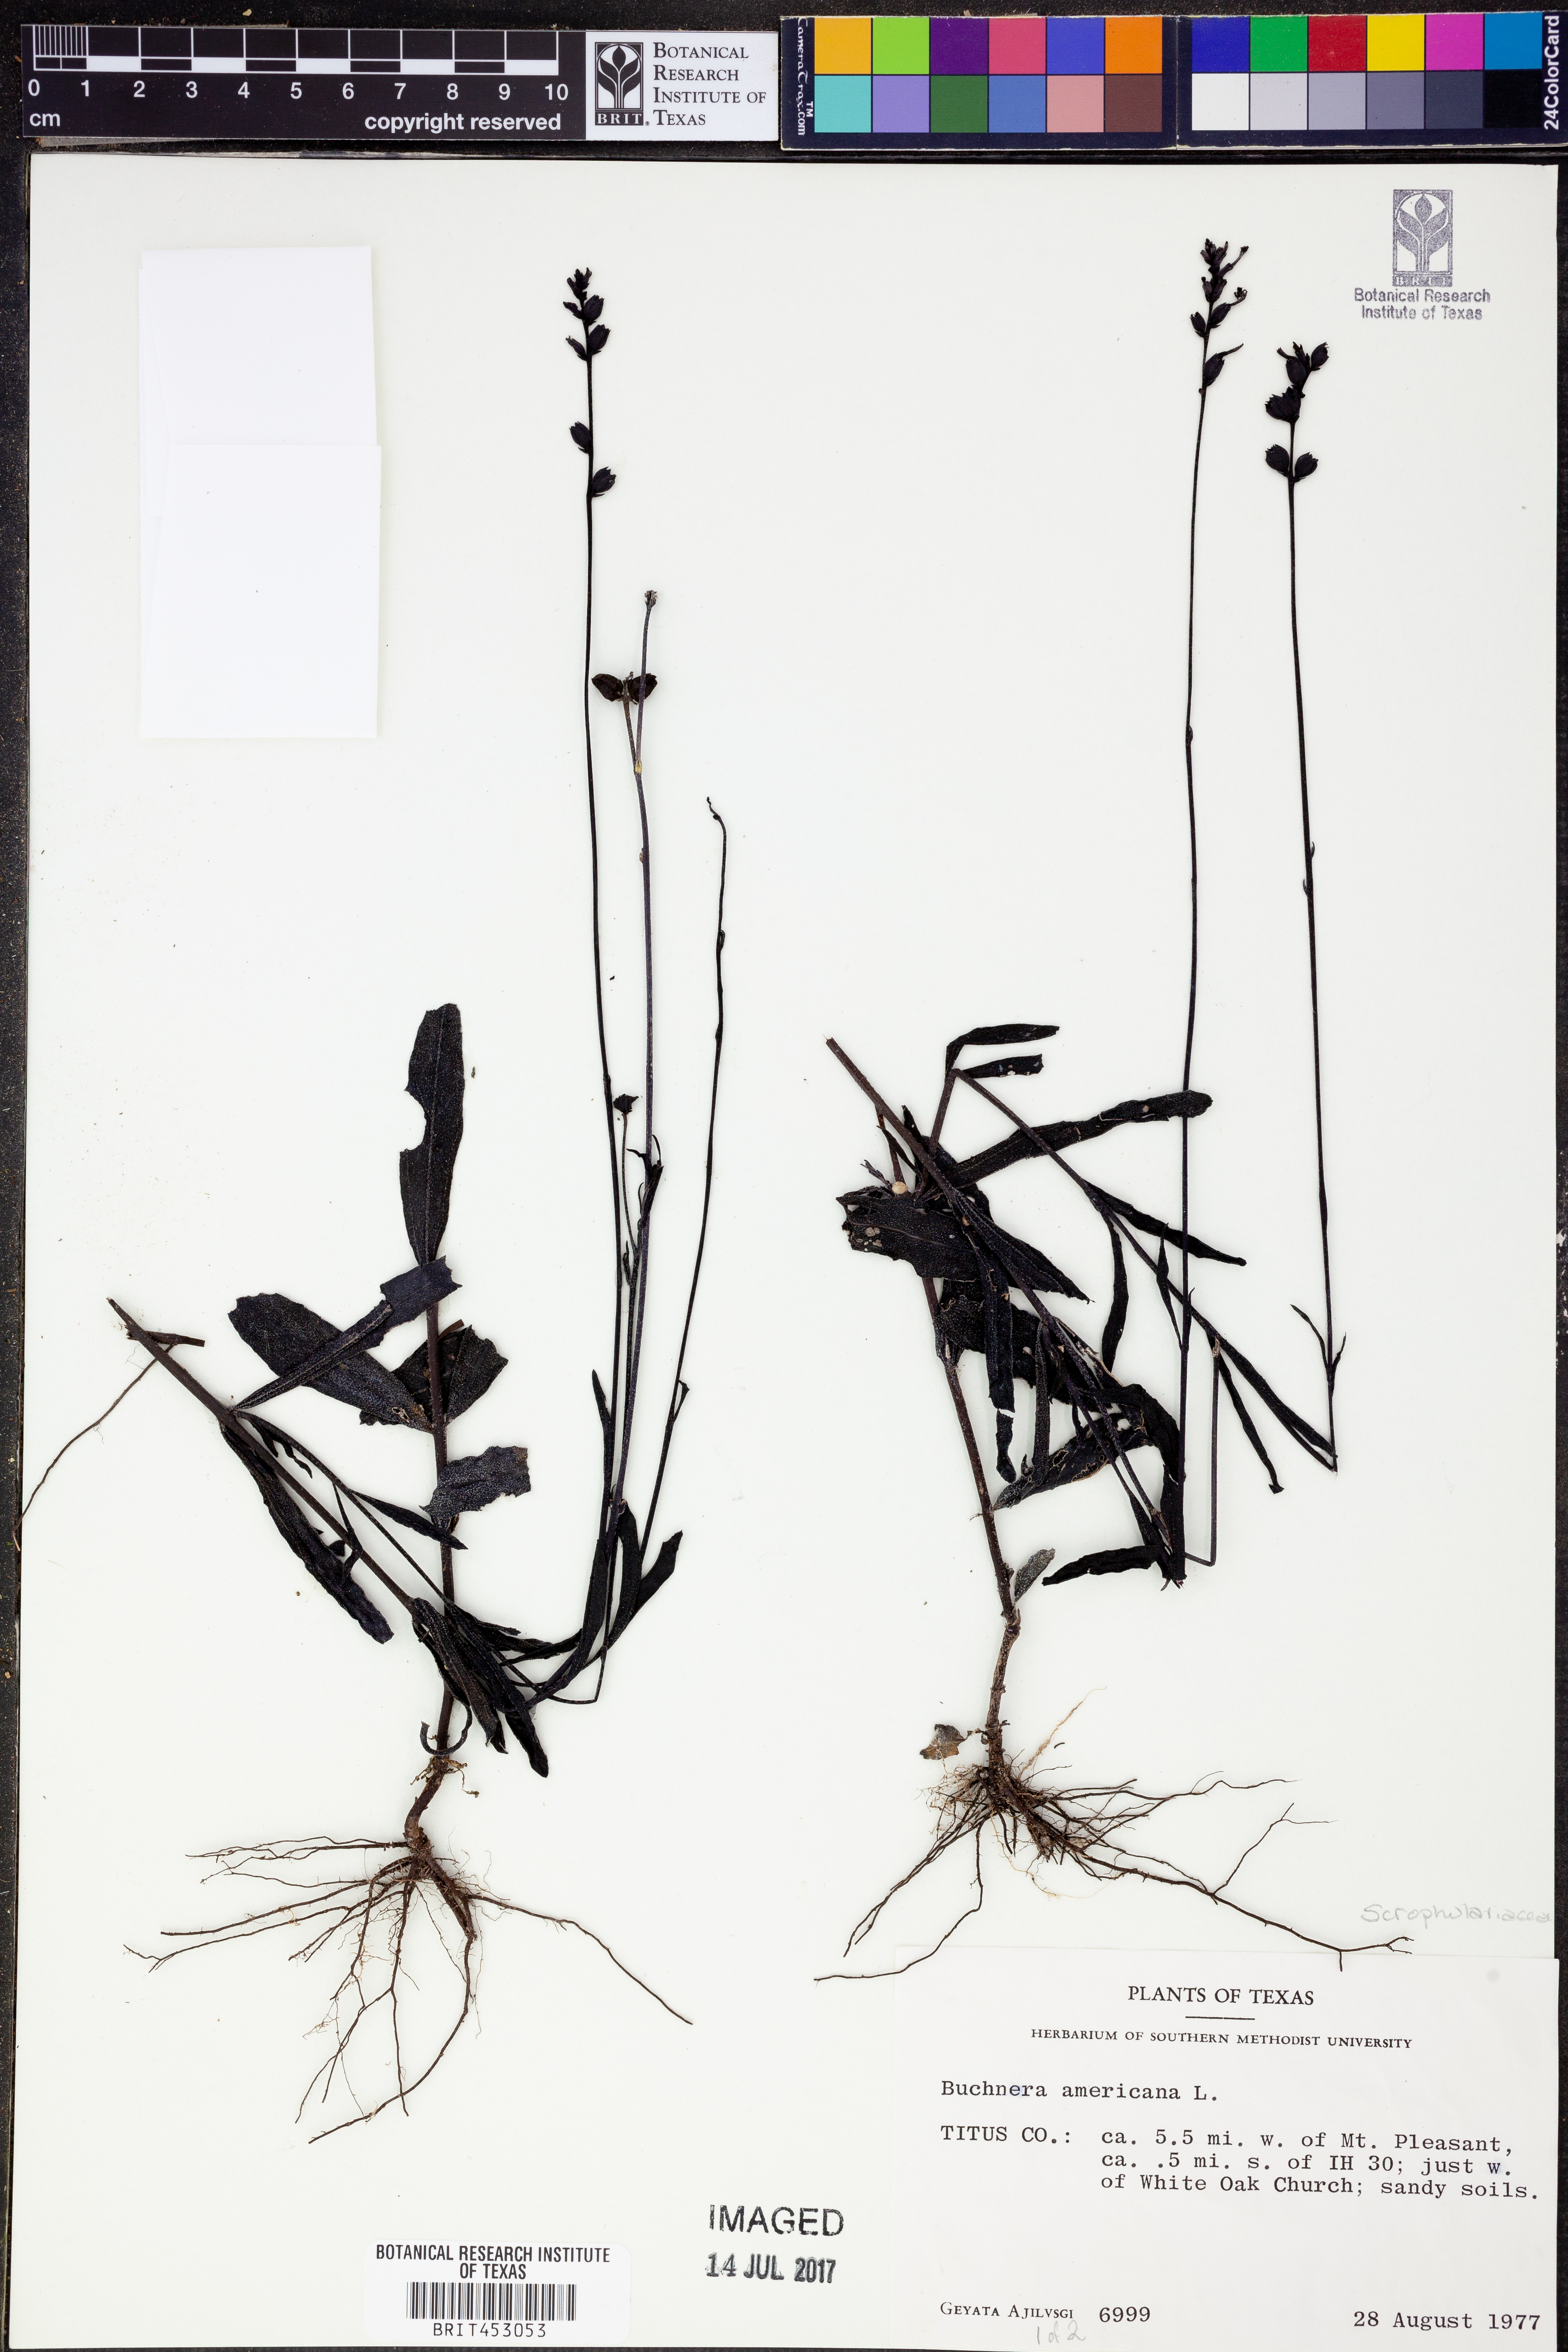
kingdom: Plantae
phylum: Tracheophyta
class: Magnoliopsida
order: Lamiales
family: Orobanchaceae
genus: Buchnera
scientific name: Buchnera americana
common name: American bluehearts
